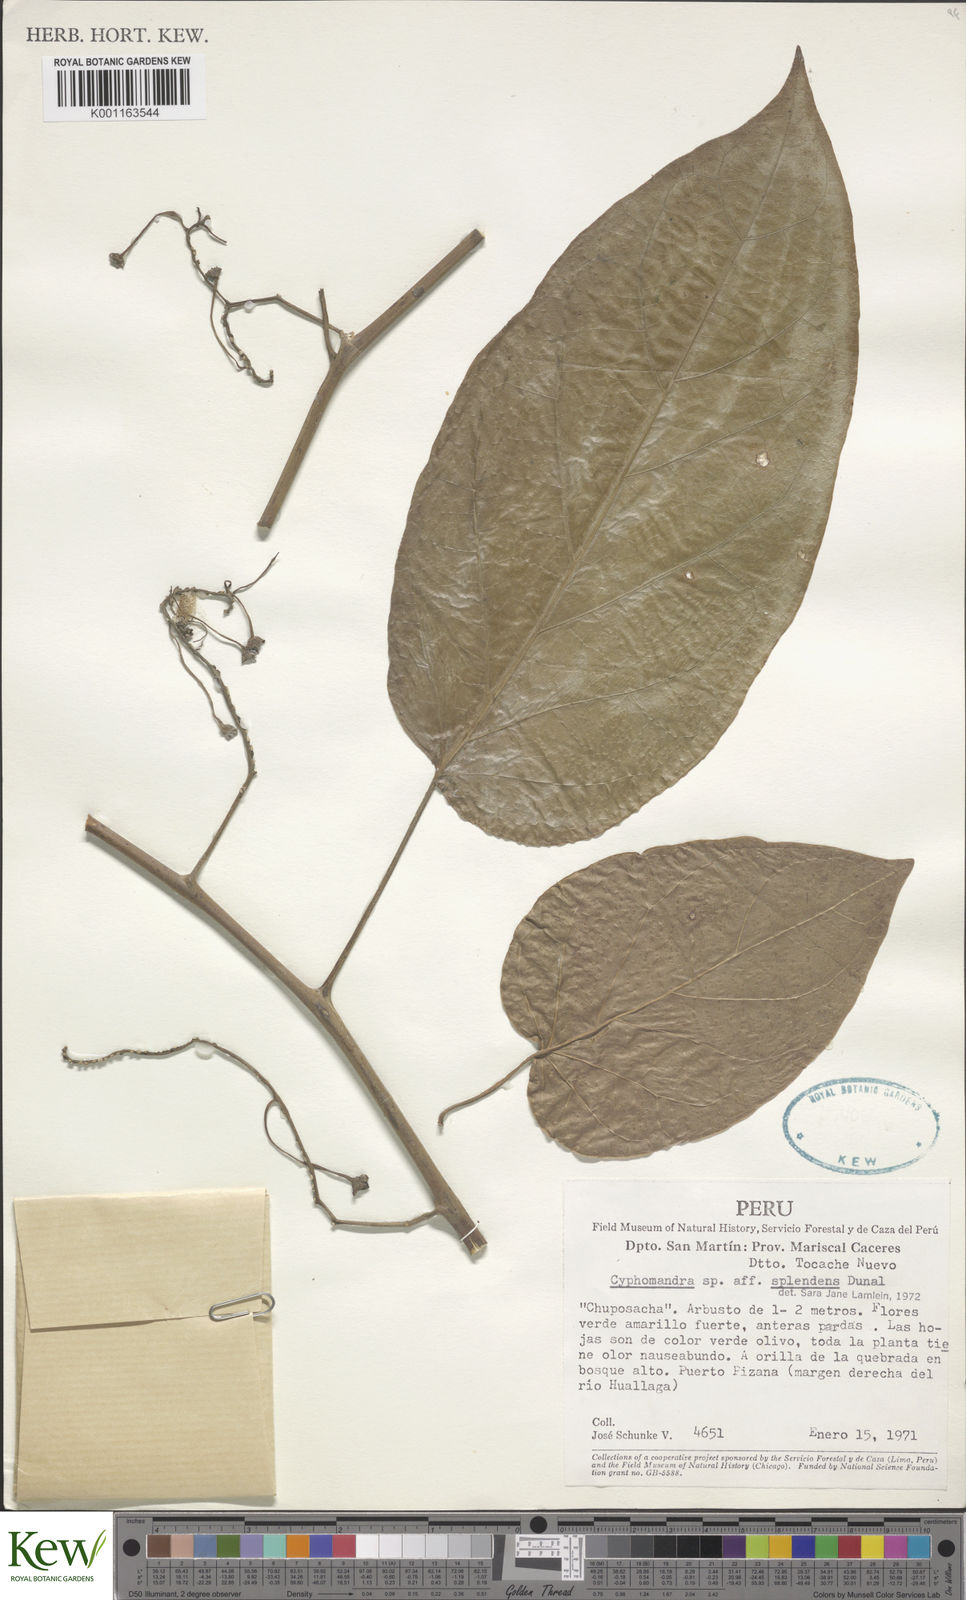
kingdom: Plantae
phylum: Tracheophyta
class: Magnoliopsida
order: Solanales
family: Solanaceae
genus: Solanum
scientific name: Solanum splendens
